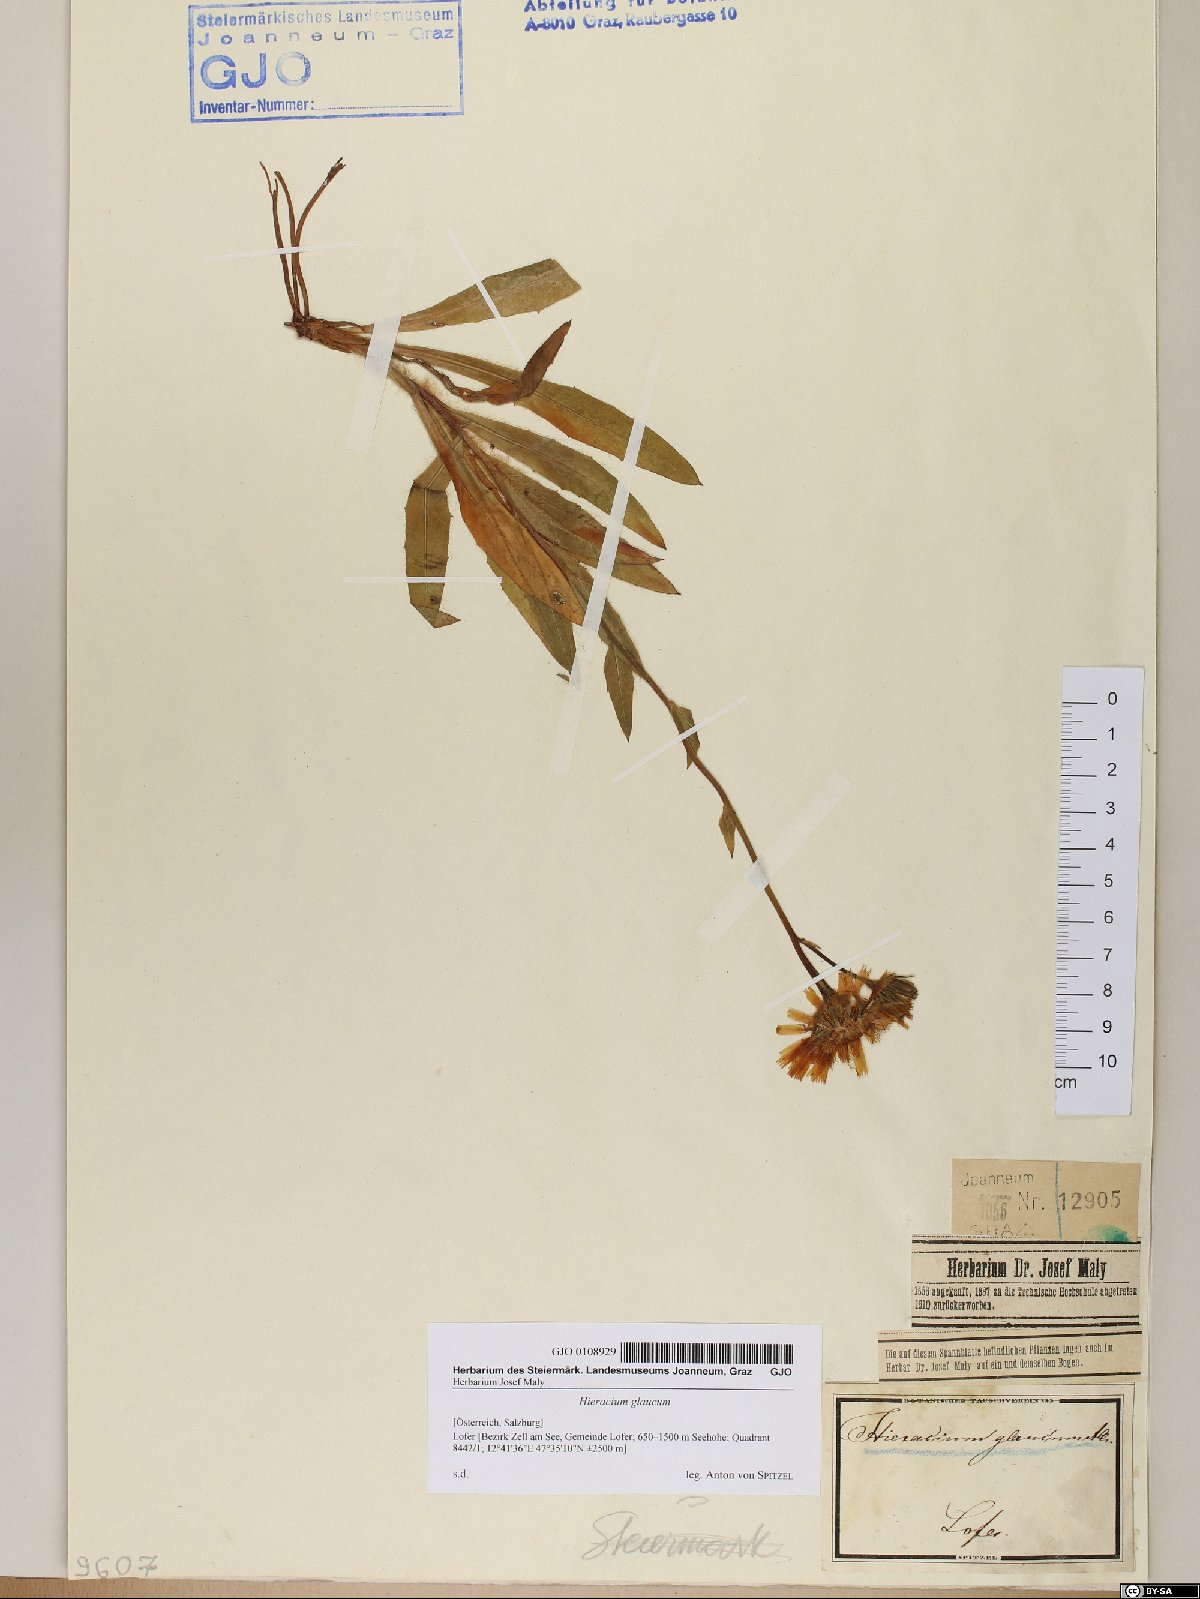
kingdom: Plantae
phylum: Tracheophyta
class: Magnoliopsida
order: Asterales
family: Asteraceae
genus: Hieracium
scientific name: Hieracium glaucum
